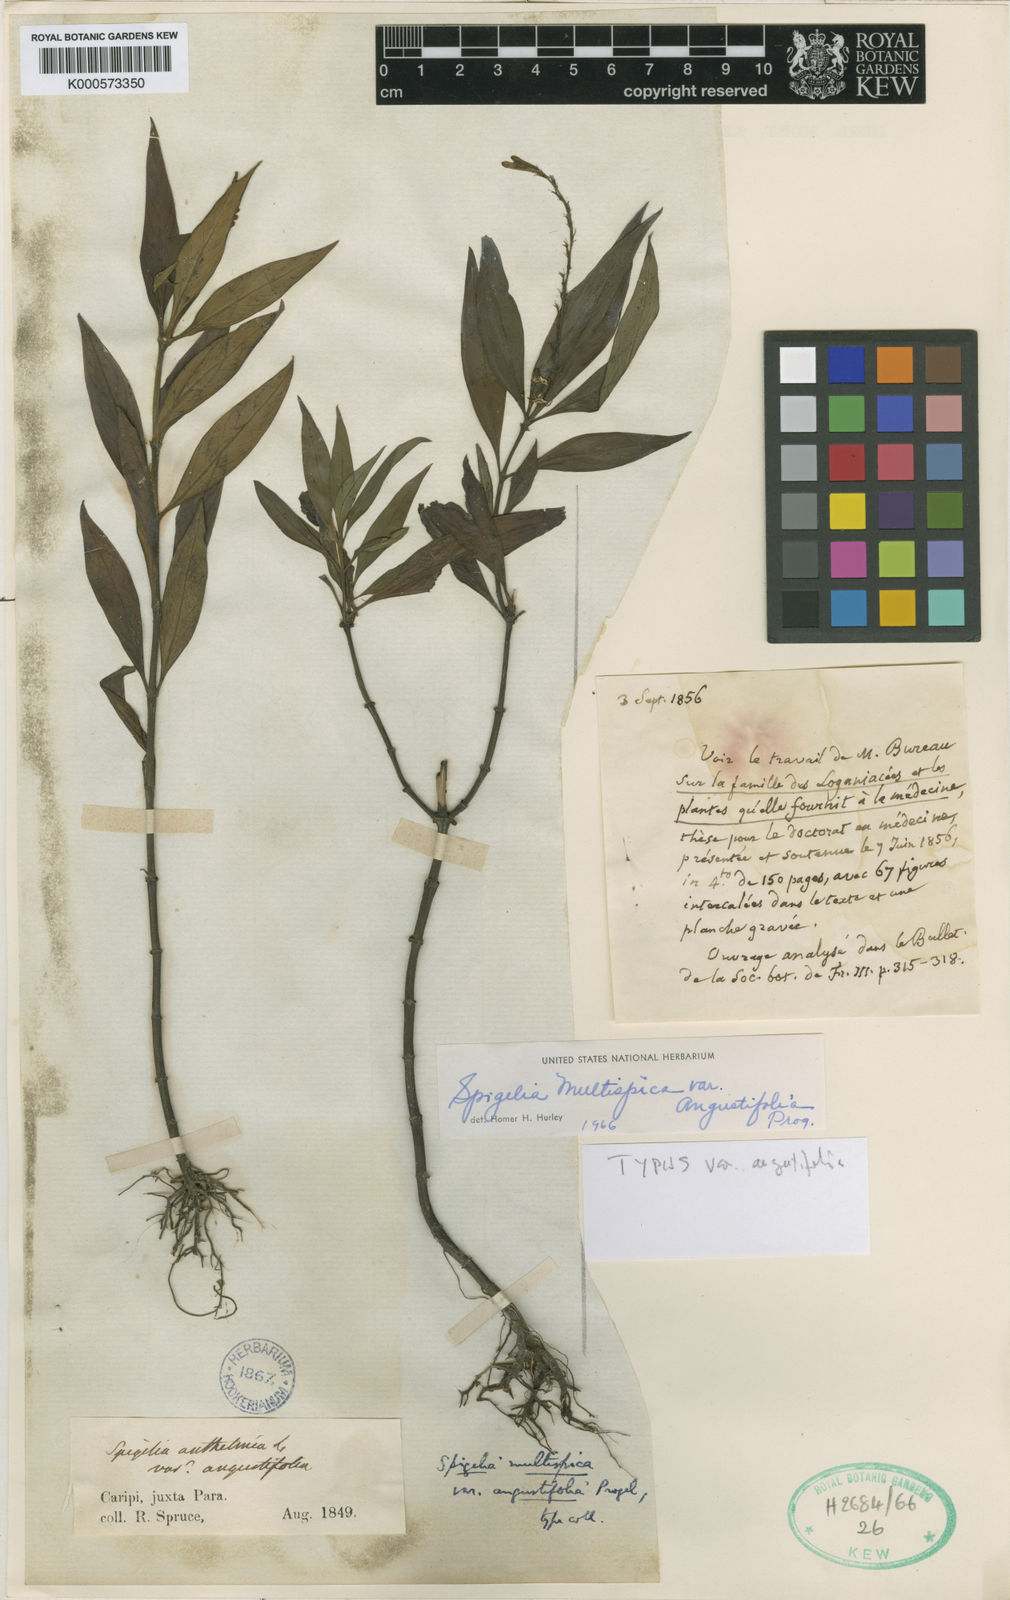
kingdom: Plantae
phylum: Tracheophyta
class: Magnoliopsida
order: Gentianales
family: Loganiaceae
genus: Spigelia
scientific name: Spigelia spruceana
